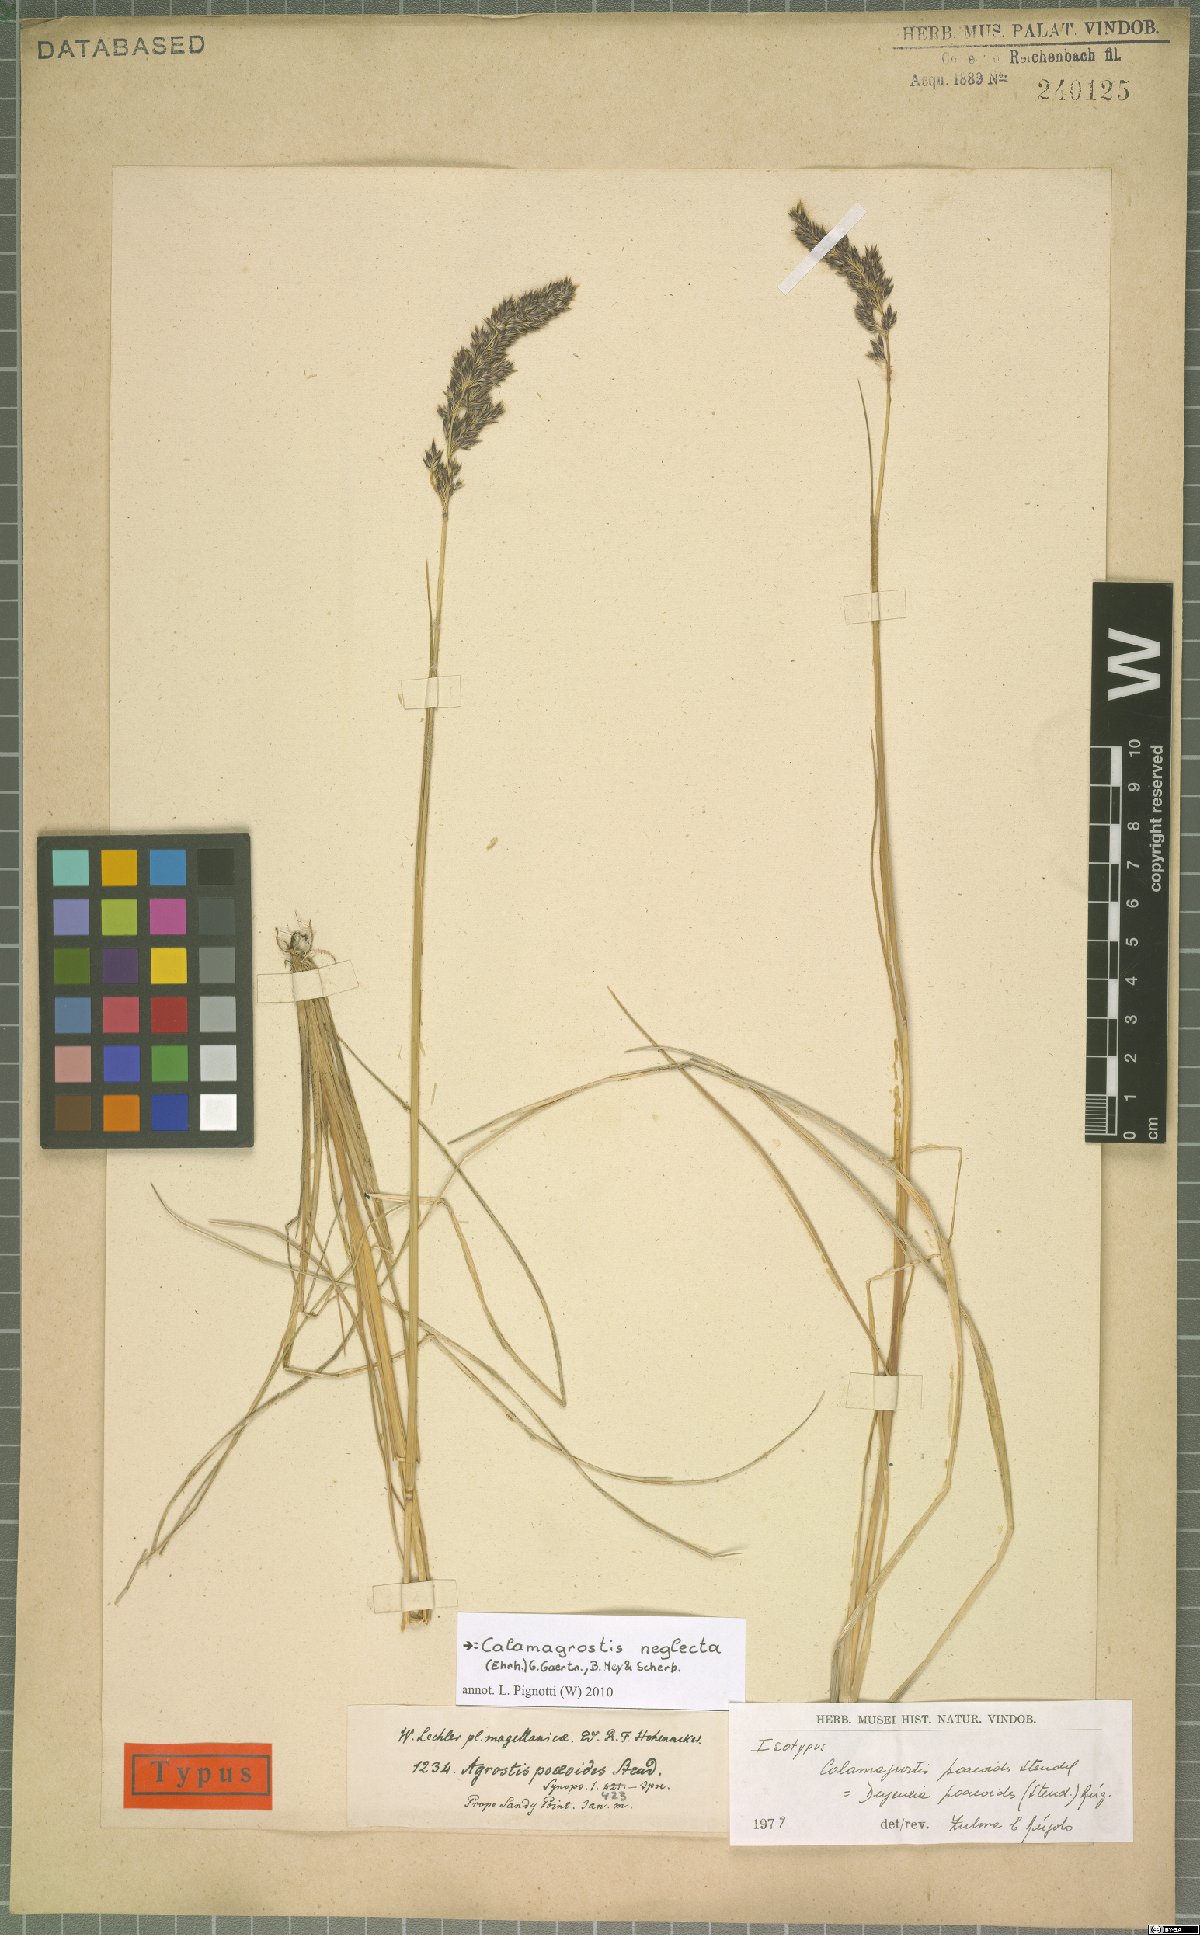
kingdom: Plantae
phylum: Tracheophyta
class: Liliopsida
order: Poales
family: Poaceae
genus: Achnatherum
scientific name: Achnatherum calamagrostis
